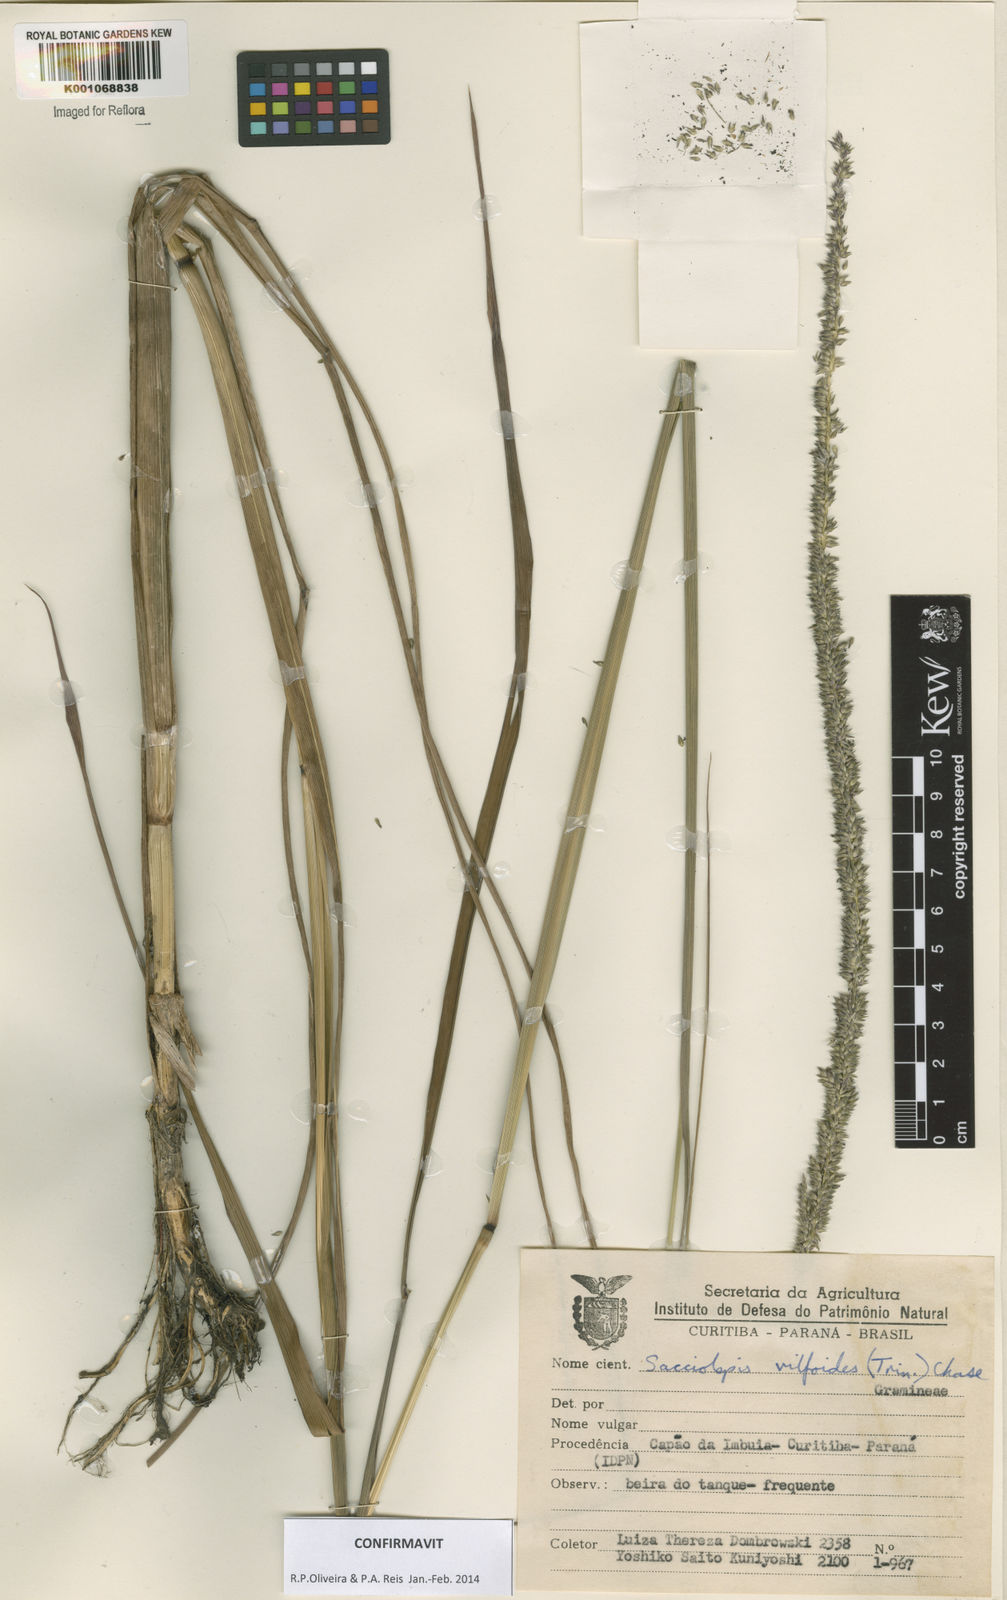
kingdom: Plantae
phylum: Tracheophyta
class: Liliopsida
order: Poales
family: Poaceae
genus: Sacciolepis
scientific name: Sacciolepis vilvoides
